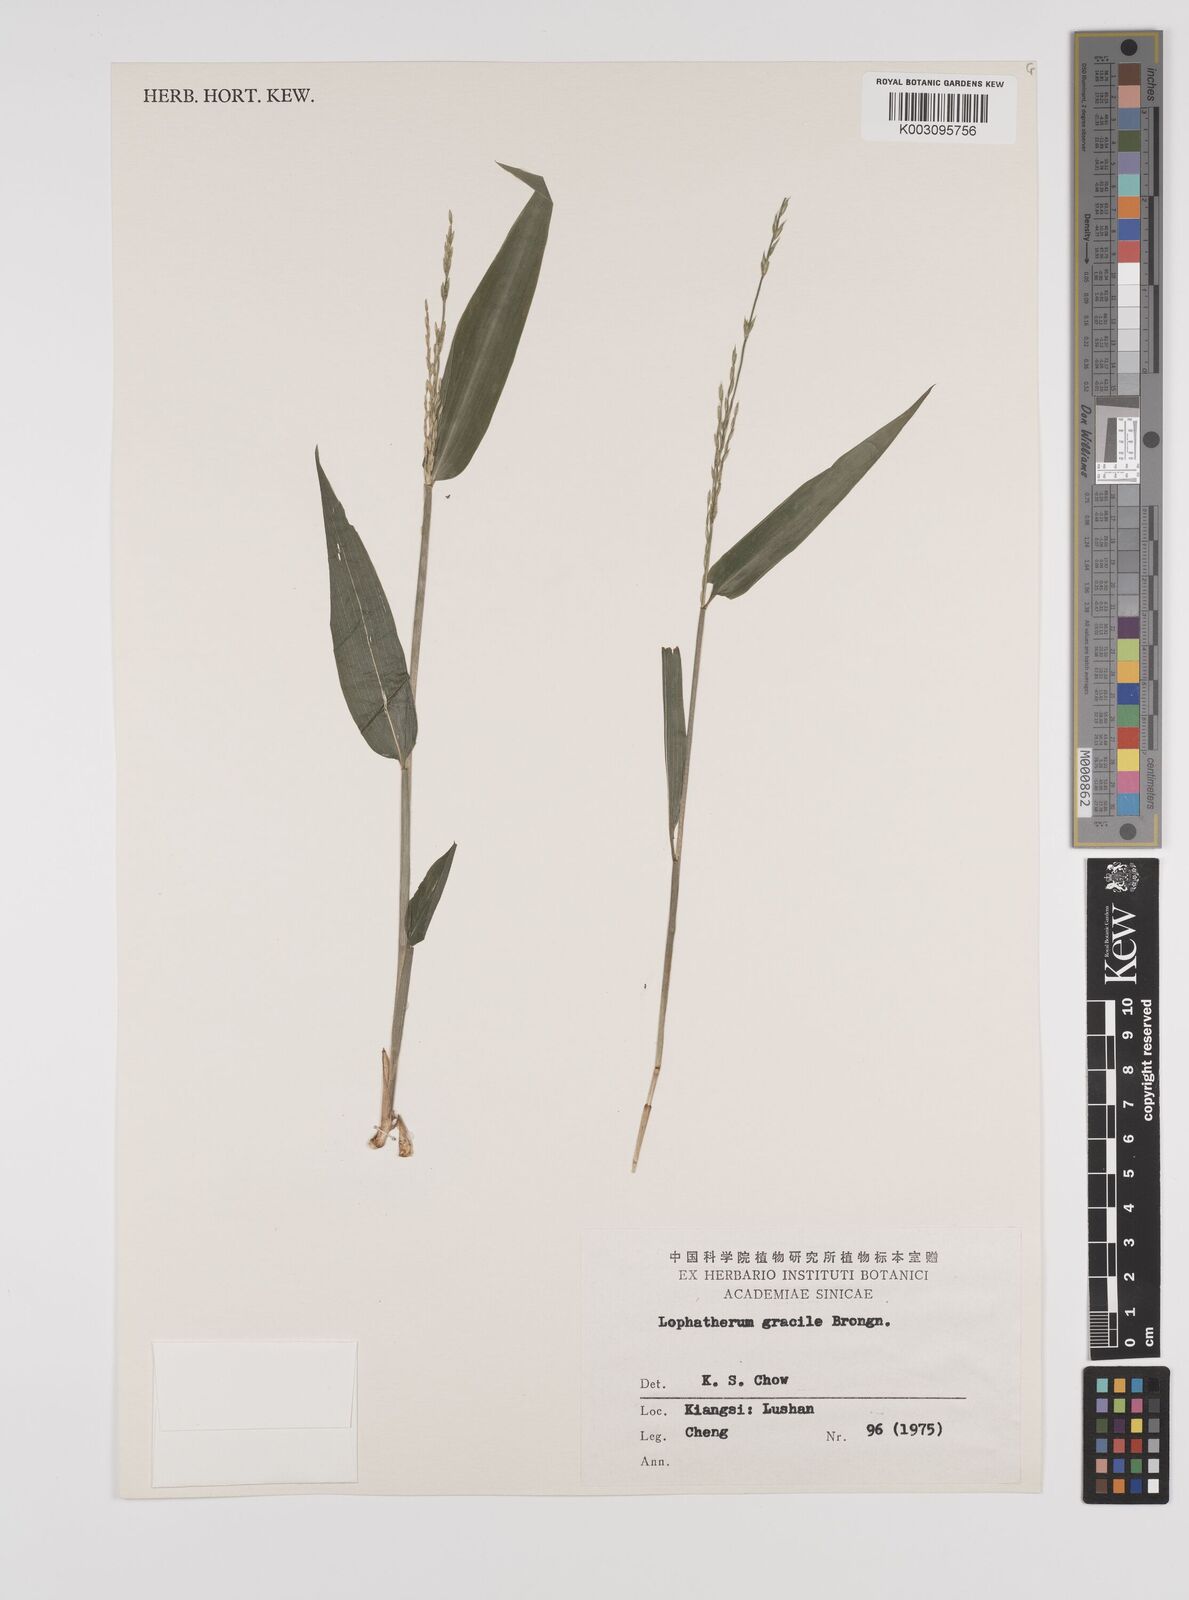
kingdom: Plantae
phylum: Tracheophyta
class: Liliopsida
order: Poales
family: Poaceae
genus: Lophatherum
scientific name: Lophatherum gracile
